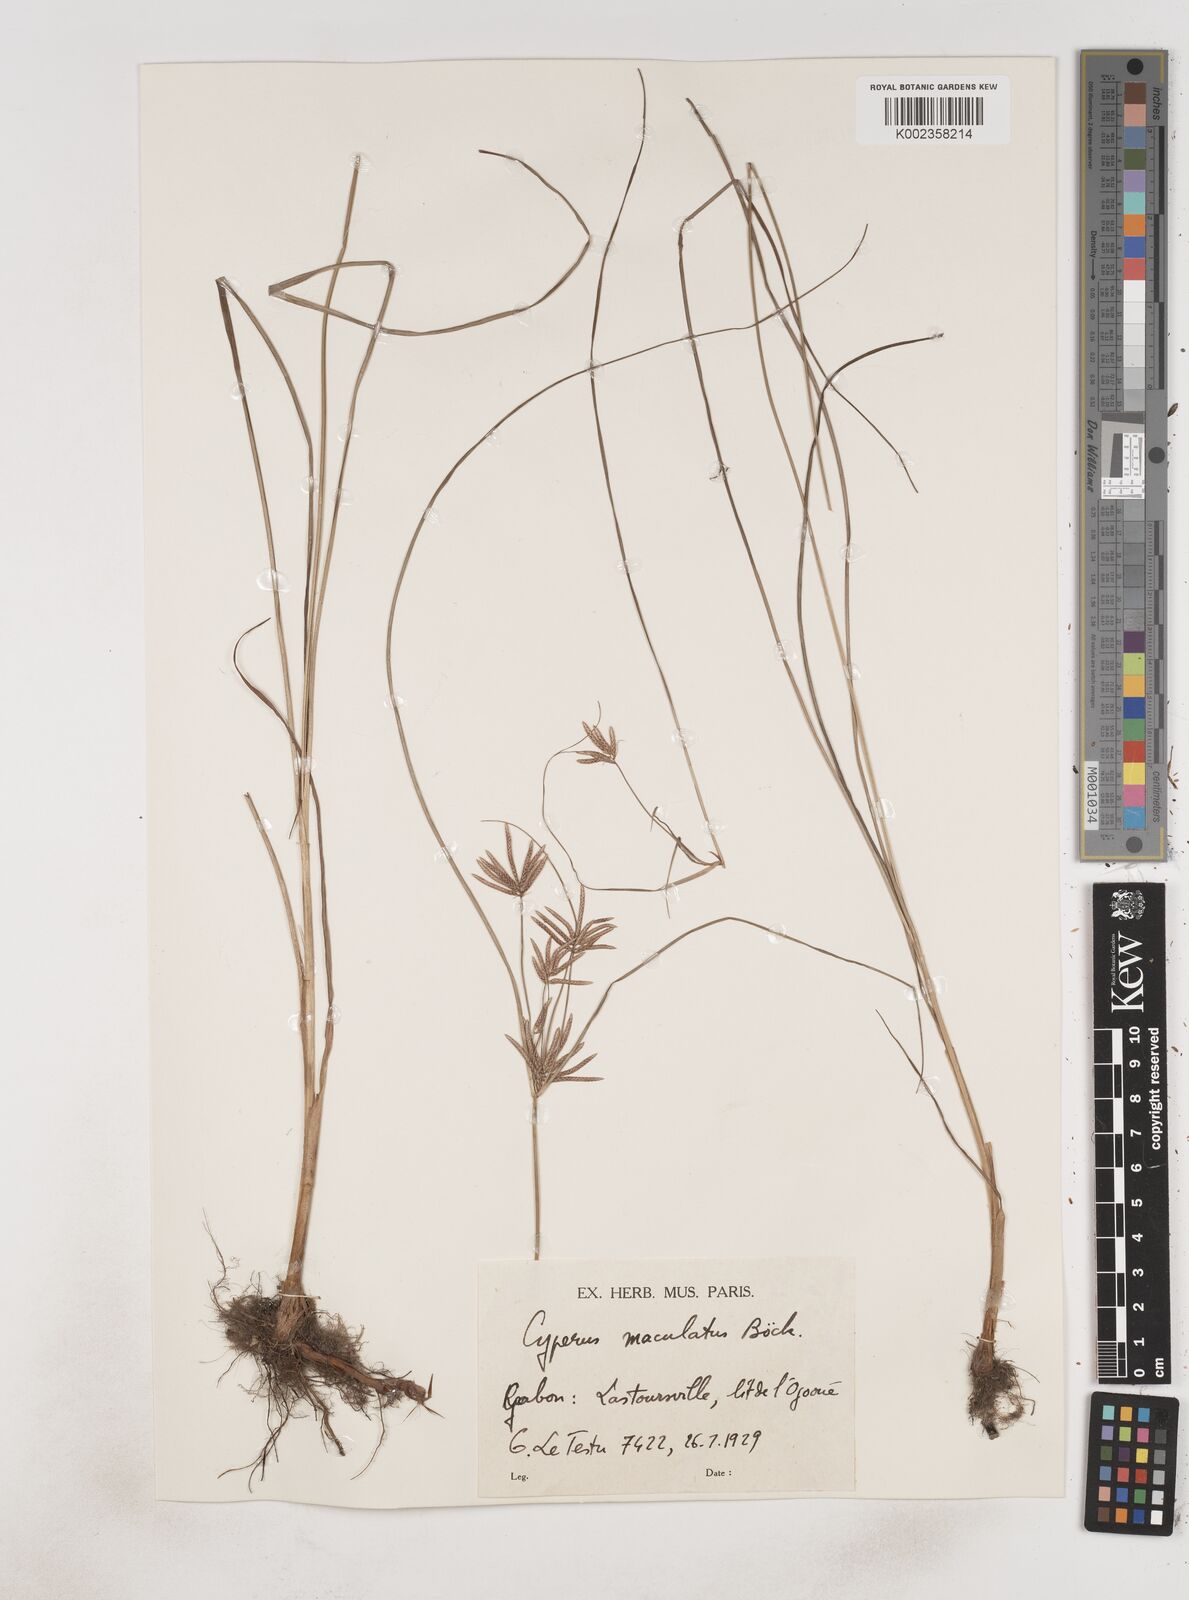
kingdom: Plantae
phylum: Tracheophyta
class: Liliopsida
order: Poales
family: Cyperaceae
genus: Cyperus
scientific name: Cyperus maculatus
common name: Maculated sedge
